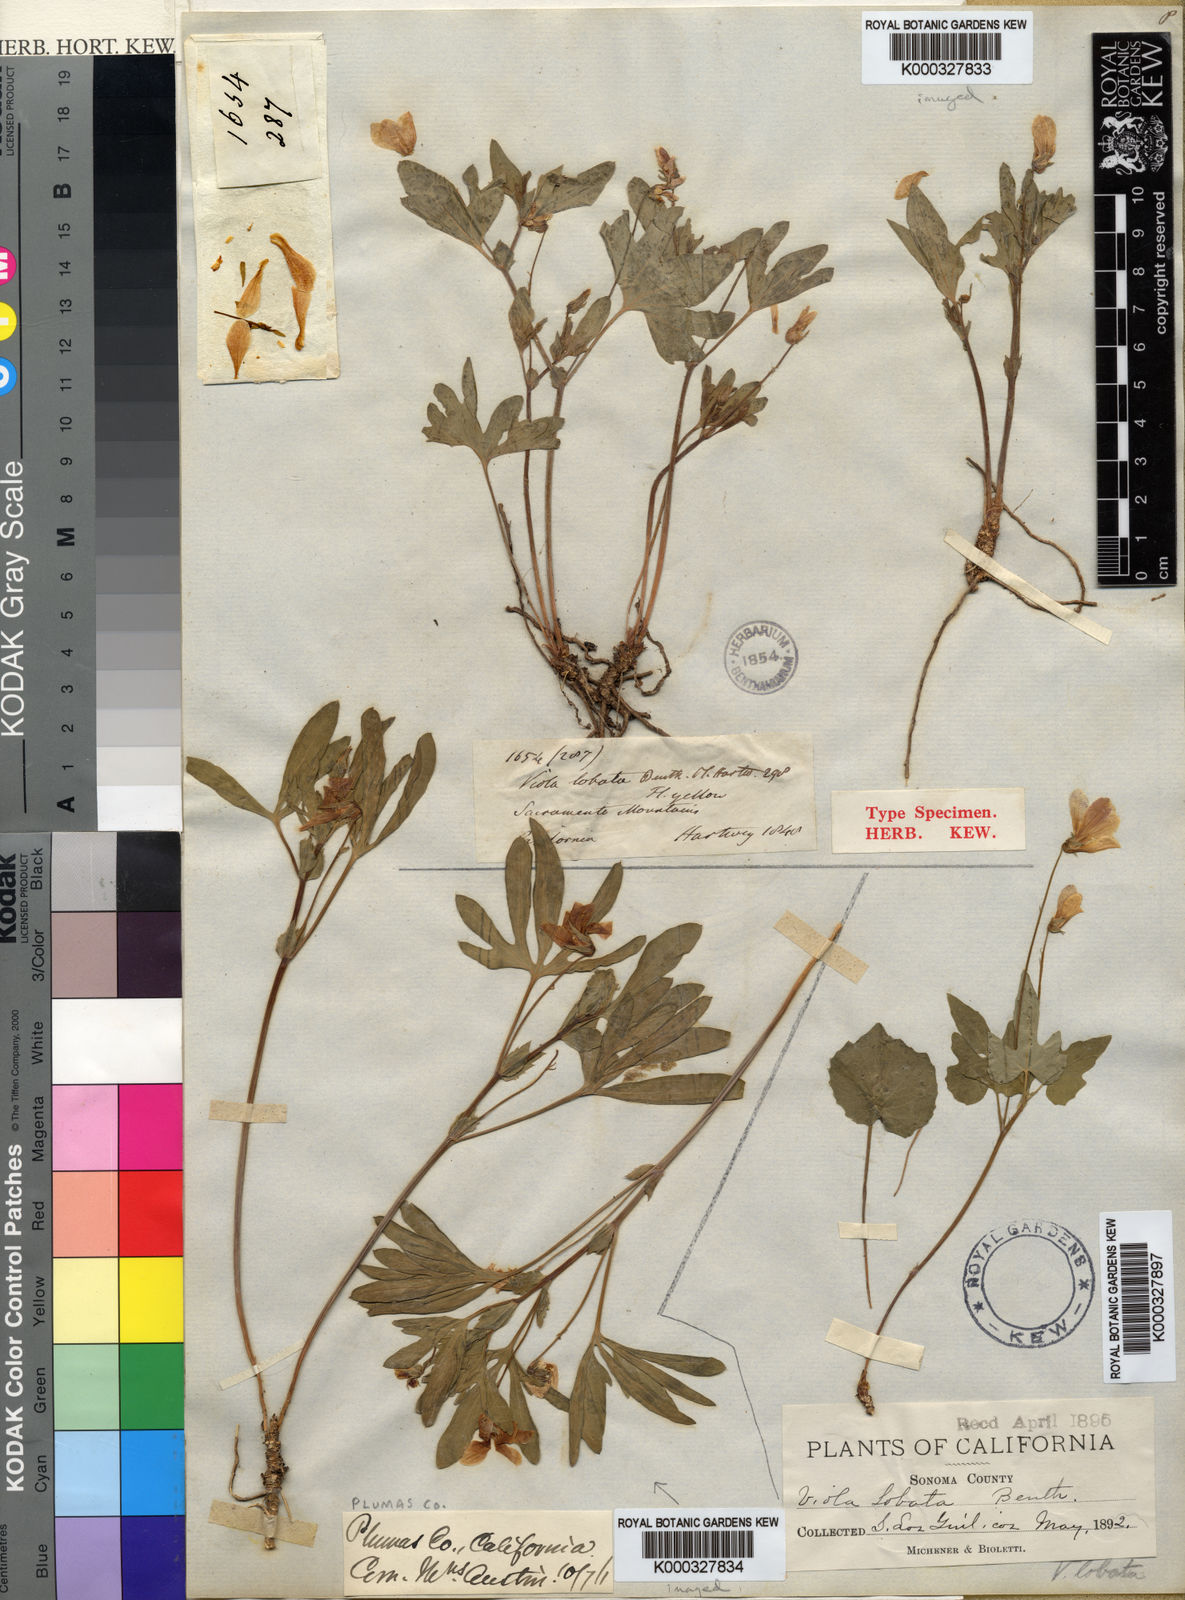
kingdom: Plantae
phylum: Tracheophyta
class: Magnoliopsida
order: Malpighiales
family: Violaceae
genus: Viola
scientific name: Viola lobata
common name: Pine violet
